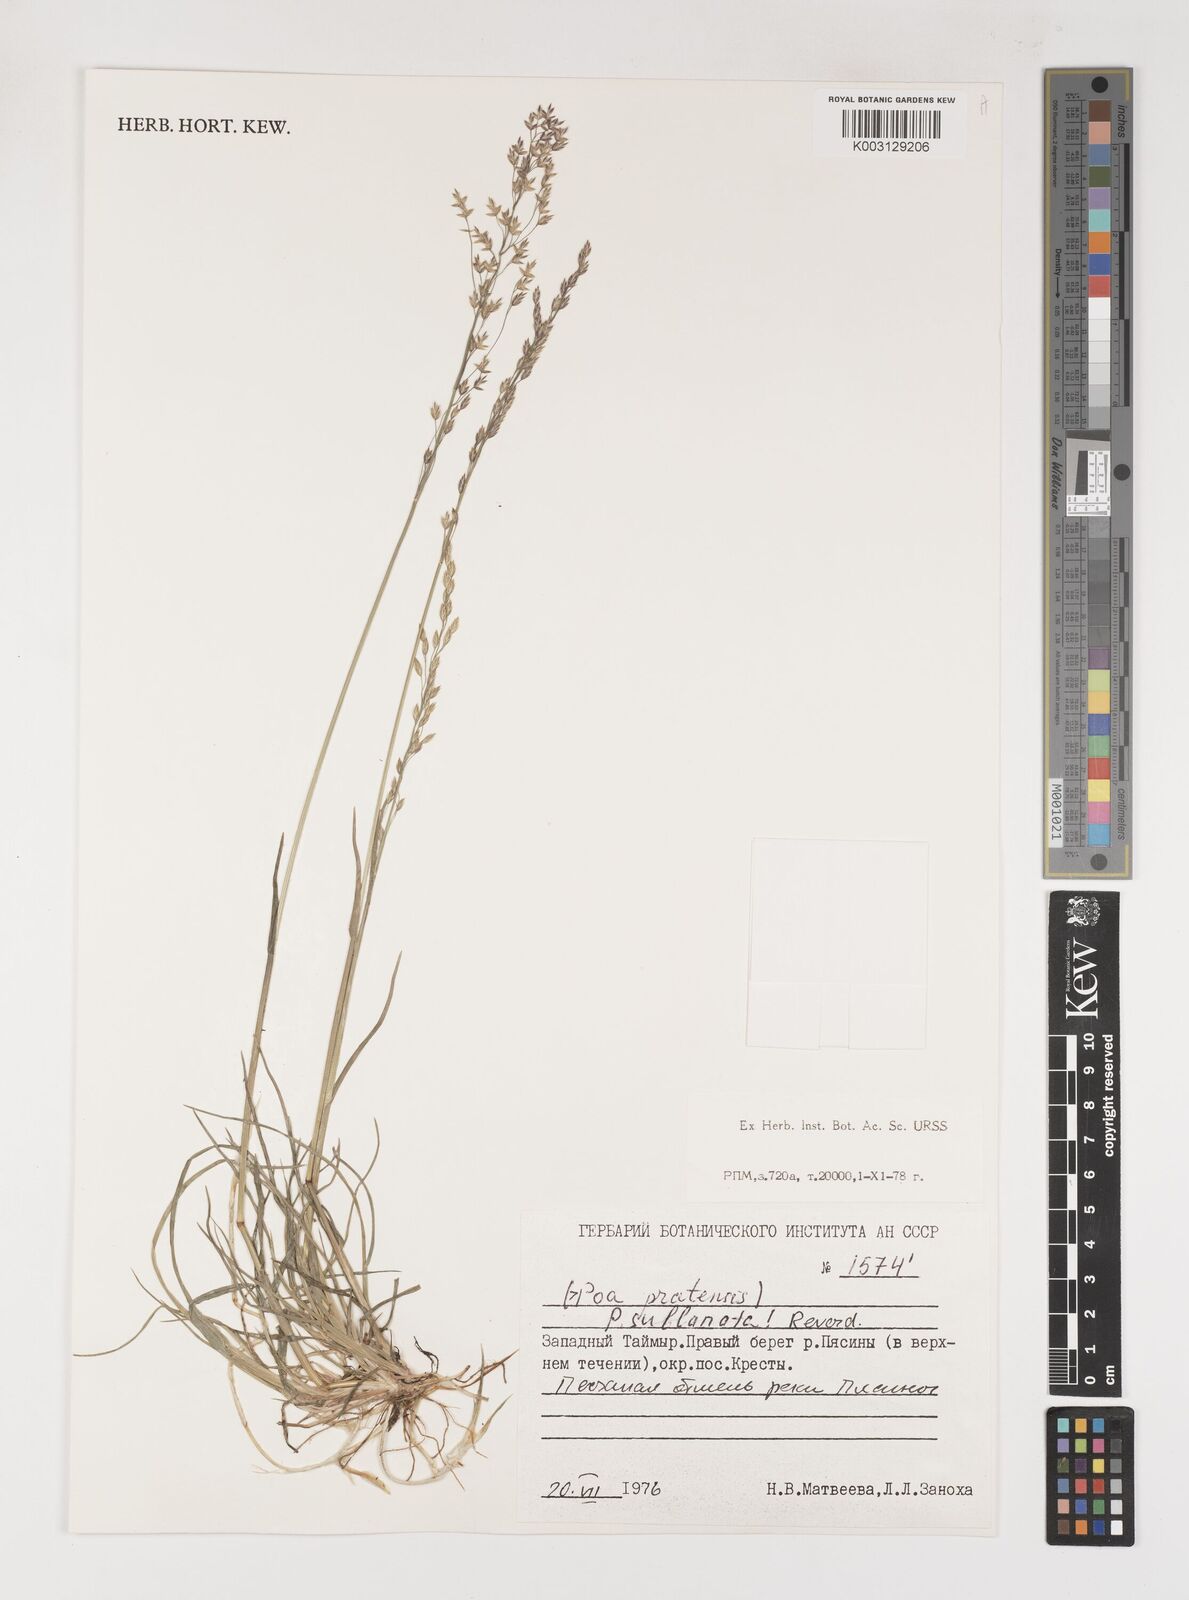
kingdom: Plantae
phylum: Tracheophyta
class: Liliopsida
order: Poales
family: Poaceae
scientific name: Poaceae
